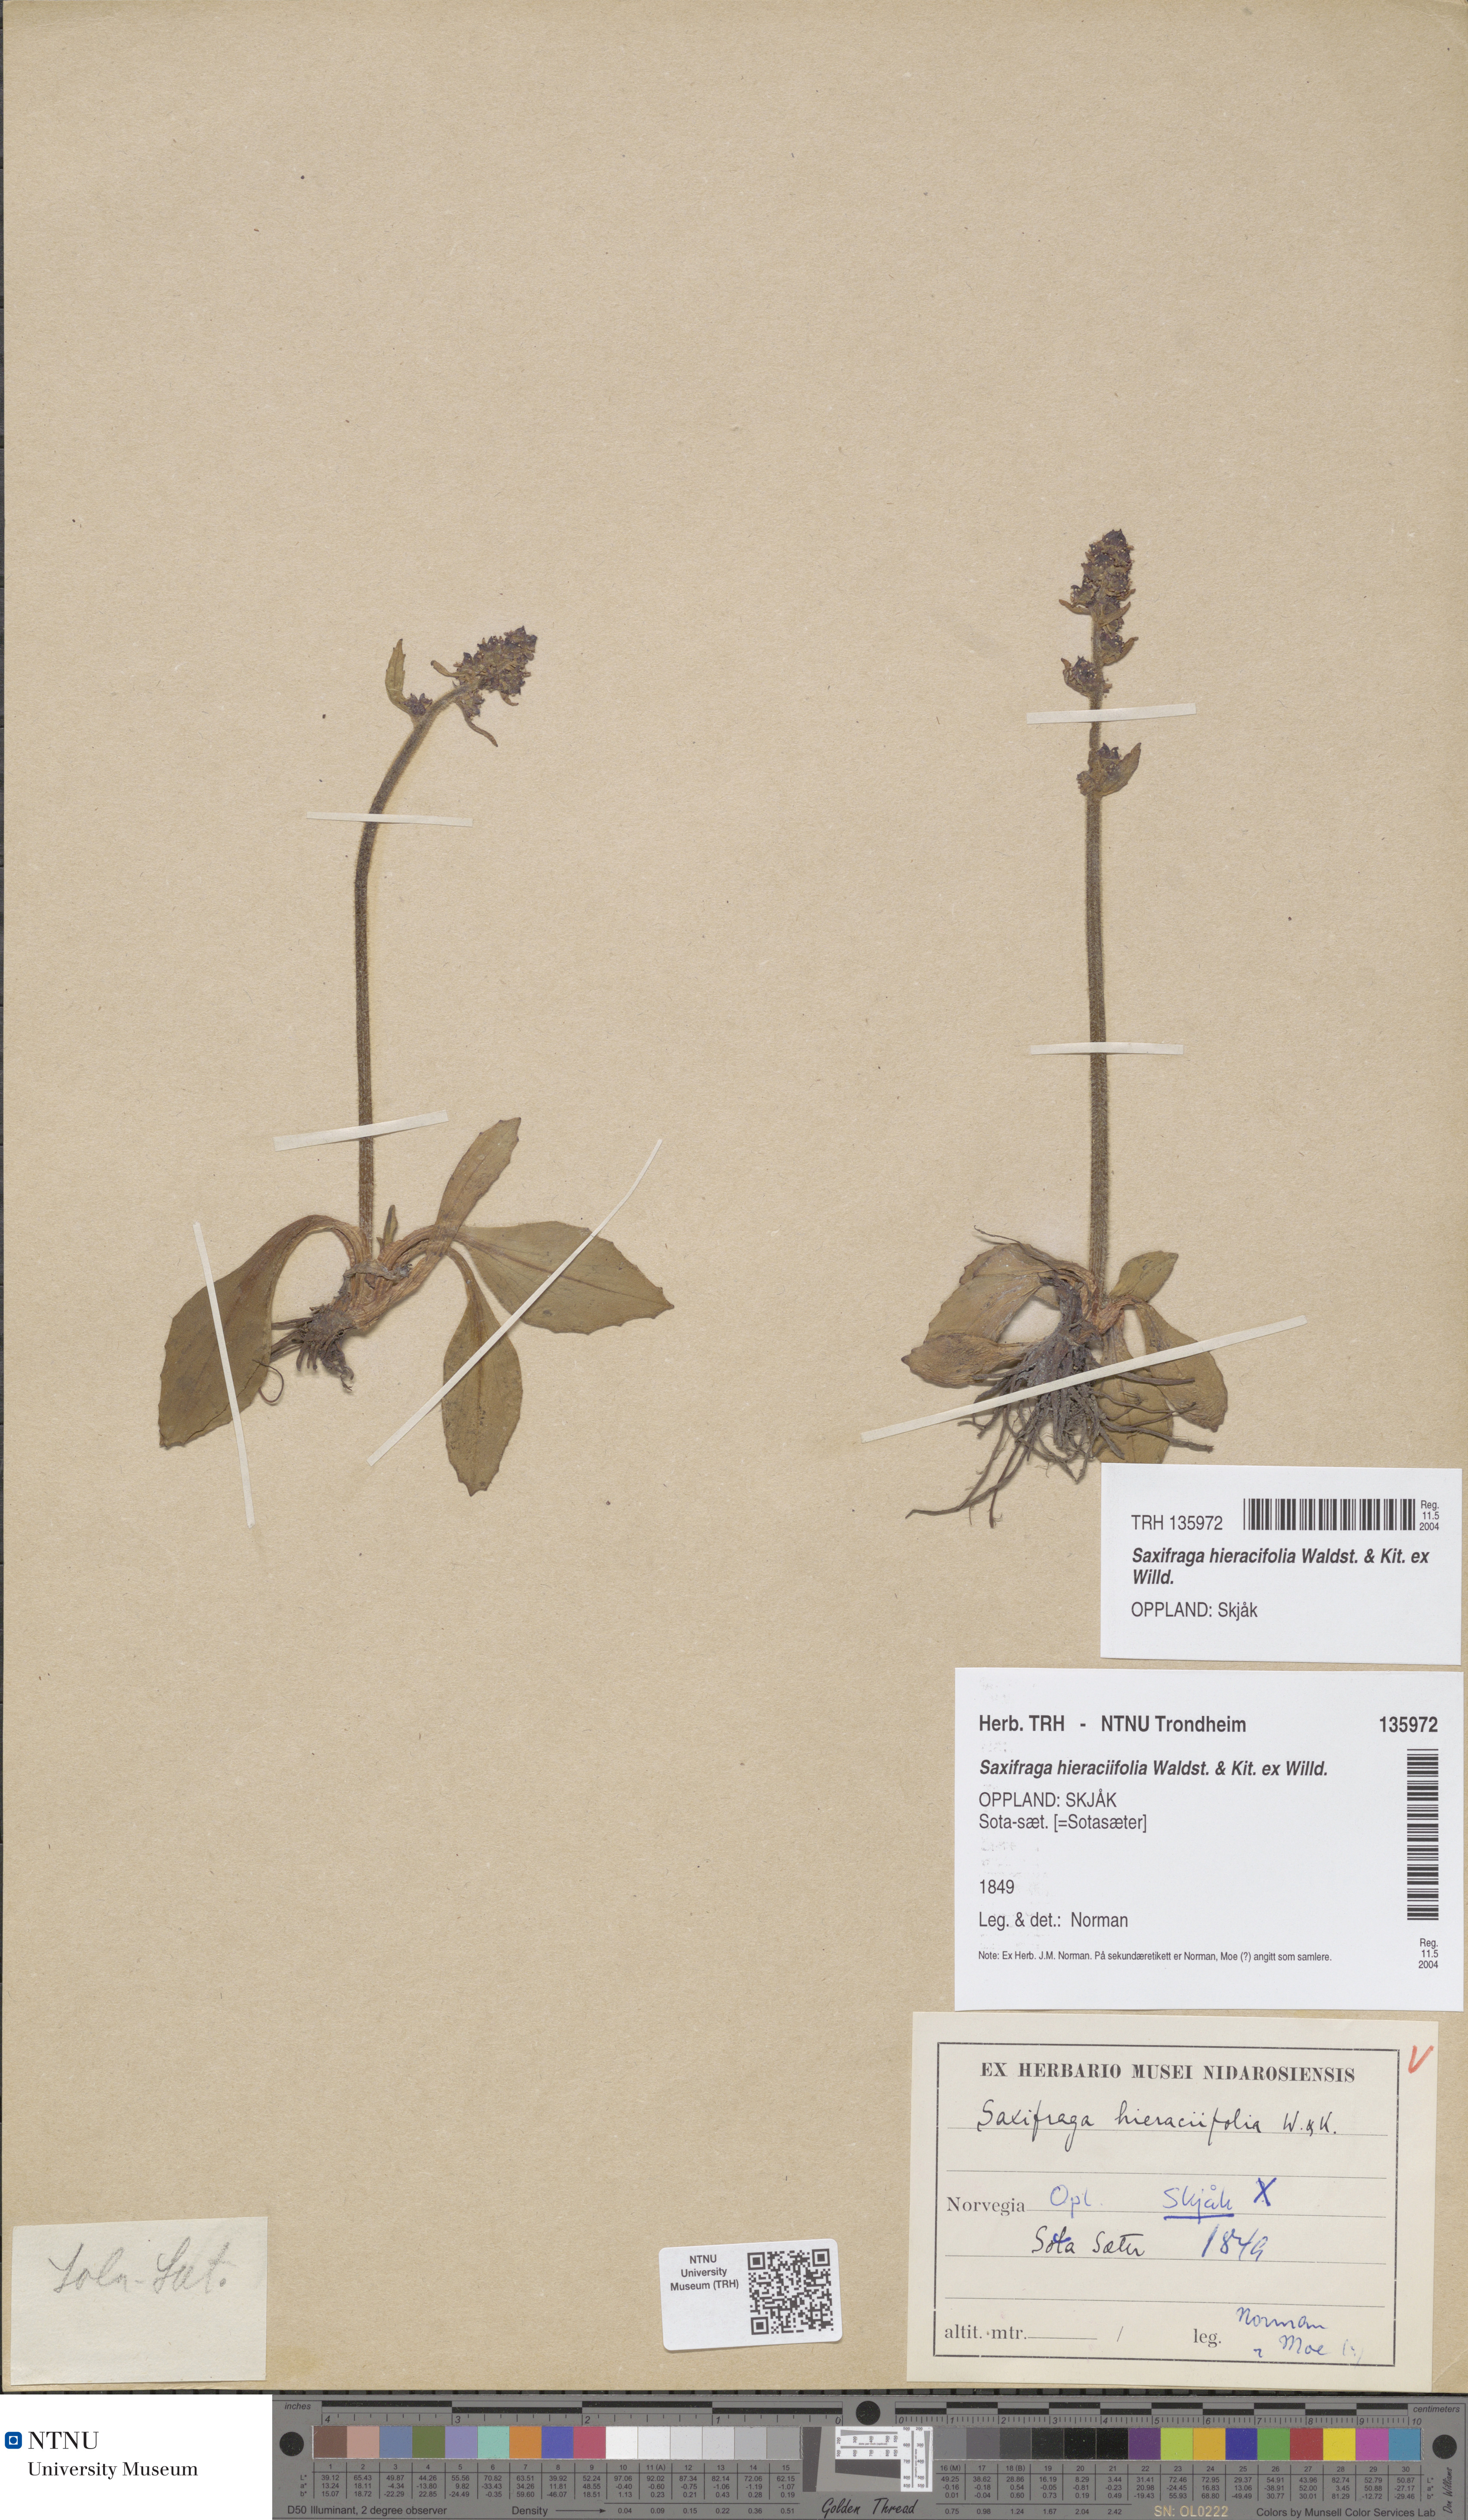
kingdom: Plantae
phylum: Tracheophyta
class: Magnoliopsida
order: Saxifragales
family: Saxifragaceae
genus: Micranthes
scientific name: Micranthes hieraciifolia
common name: Hawkweed-leaved saxifrage
